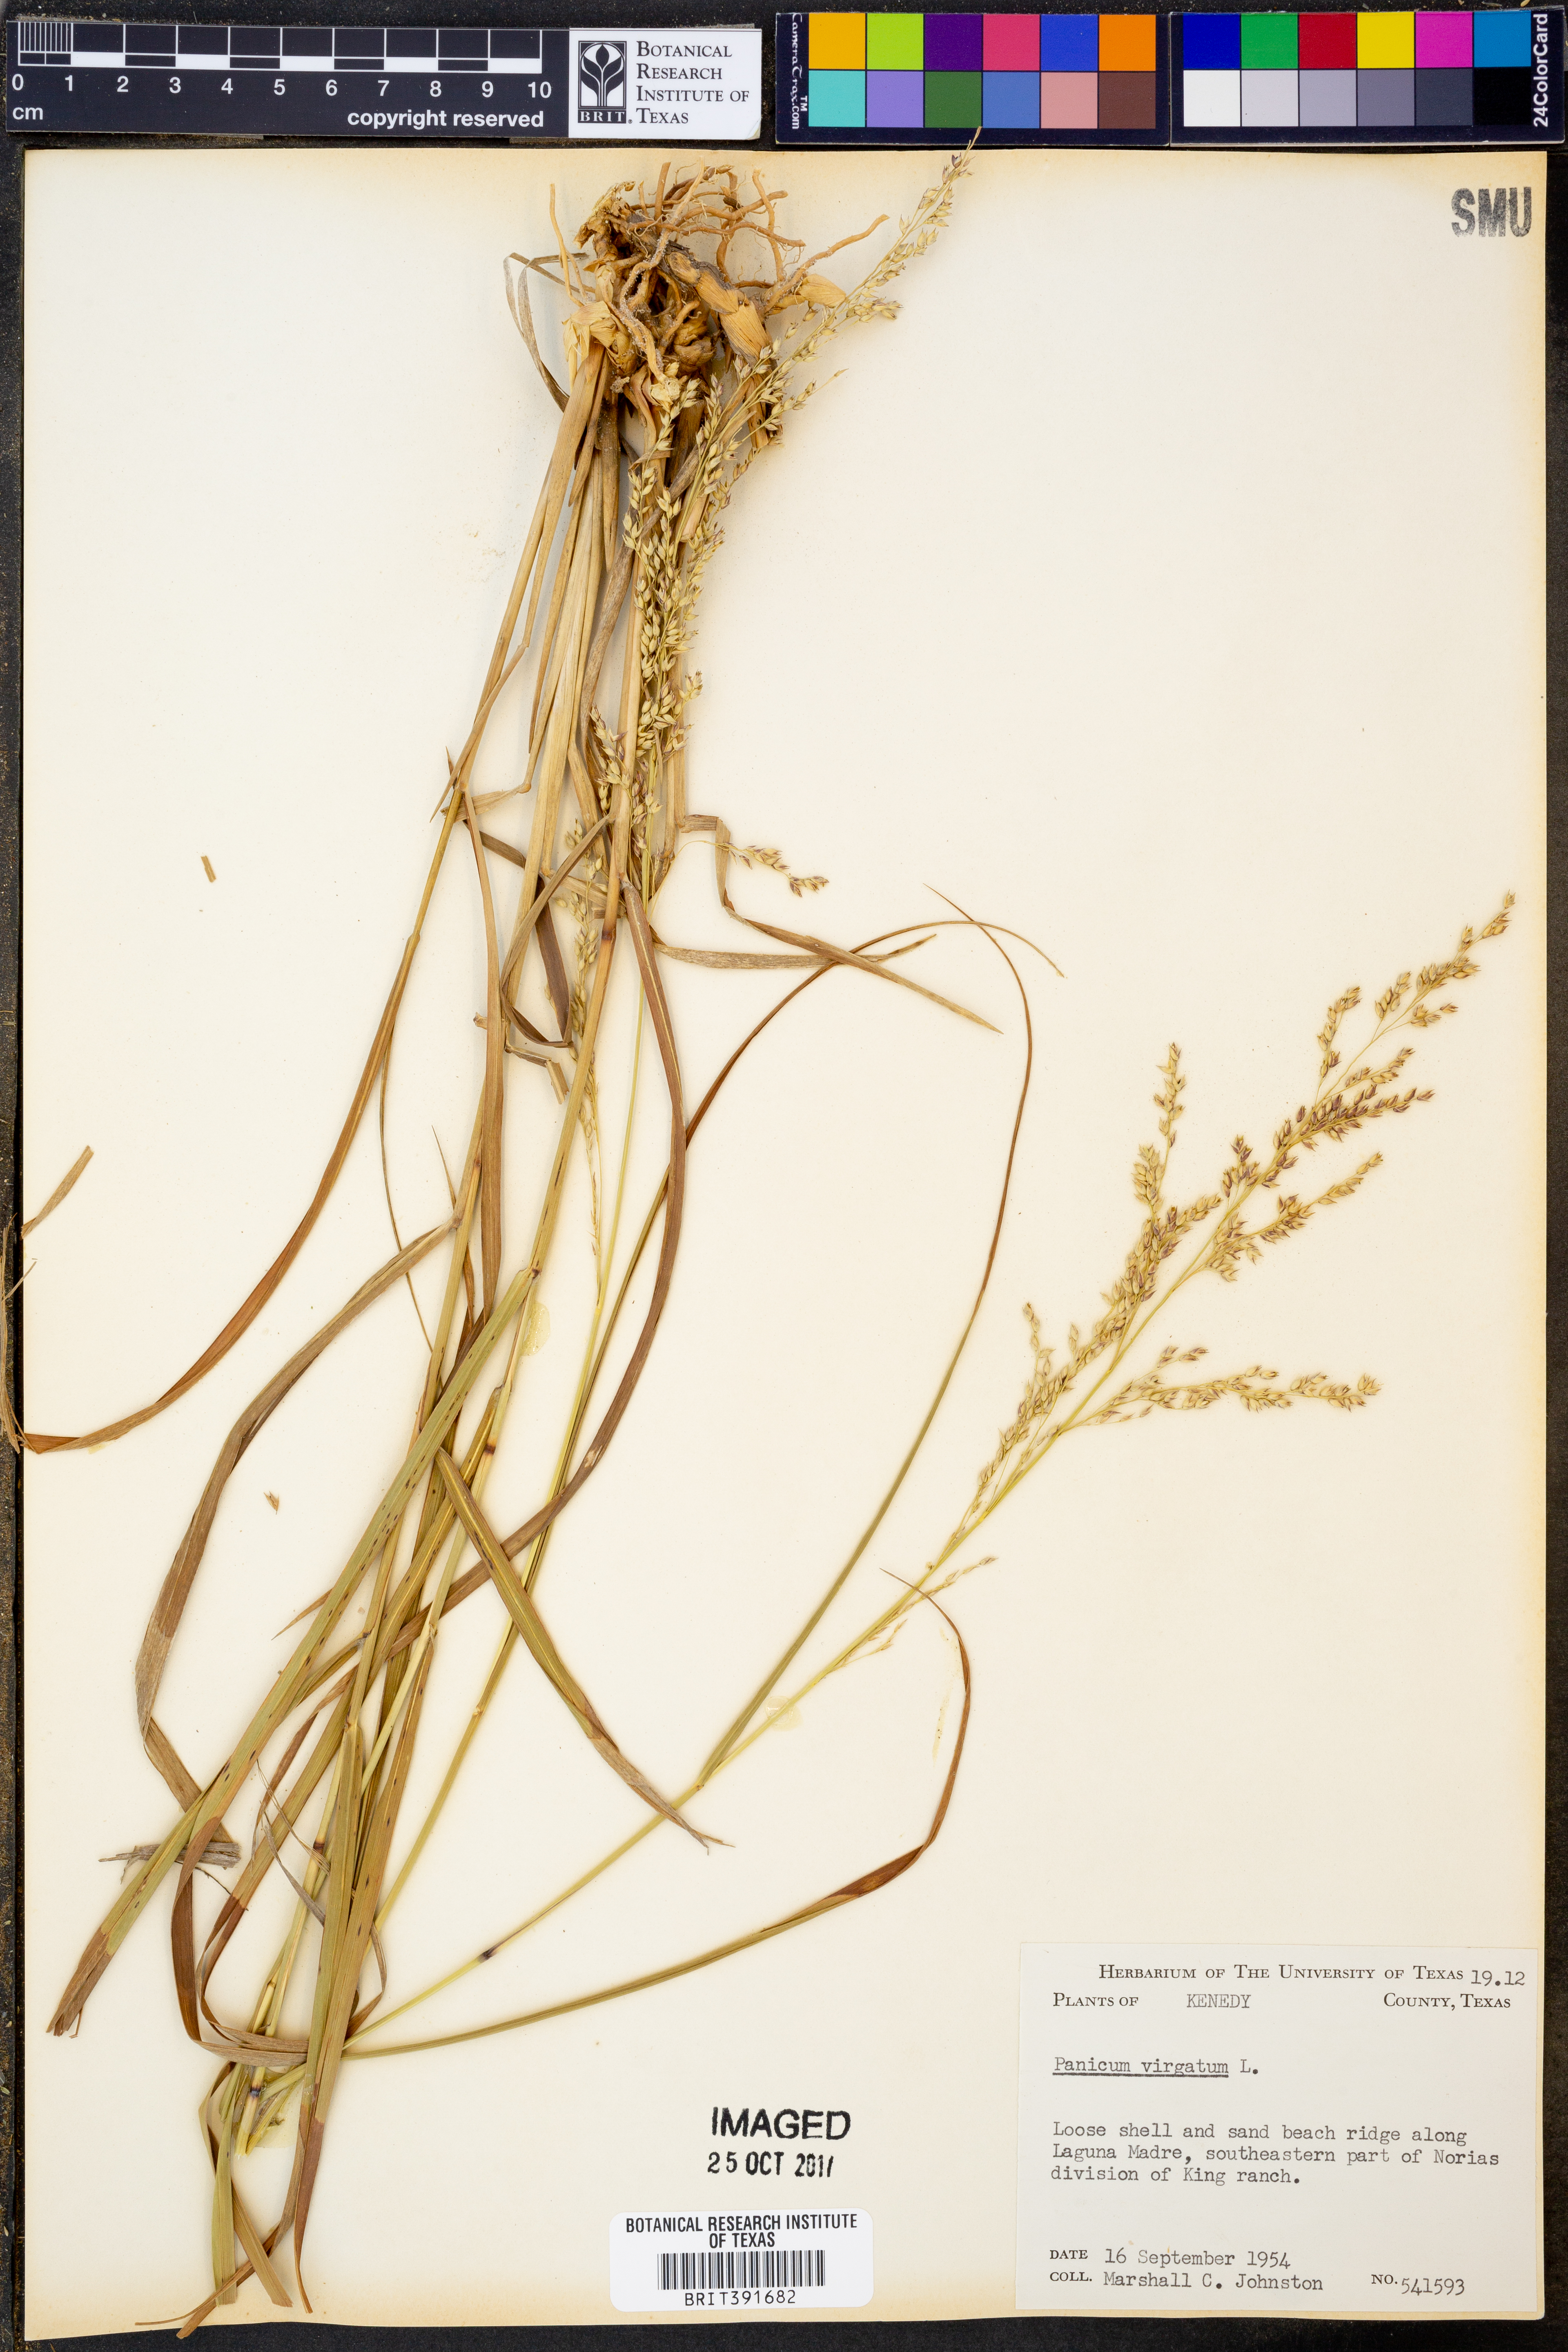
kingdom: Plantae
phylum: Tracheophyta
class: Liliopsida
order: Poales
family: Poaceae
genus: Panicum
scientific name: Panicum virgatum
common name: Switchgrass
